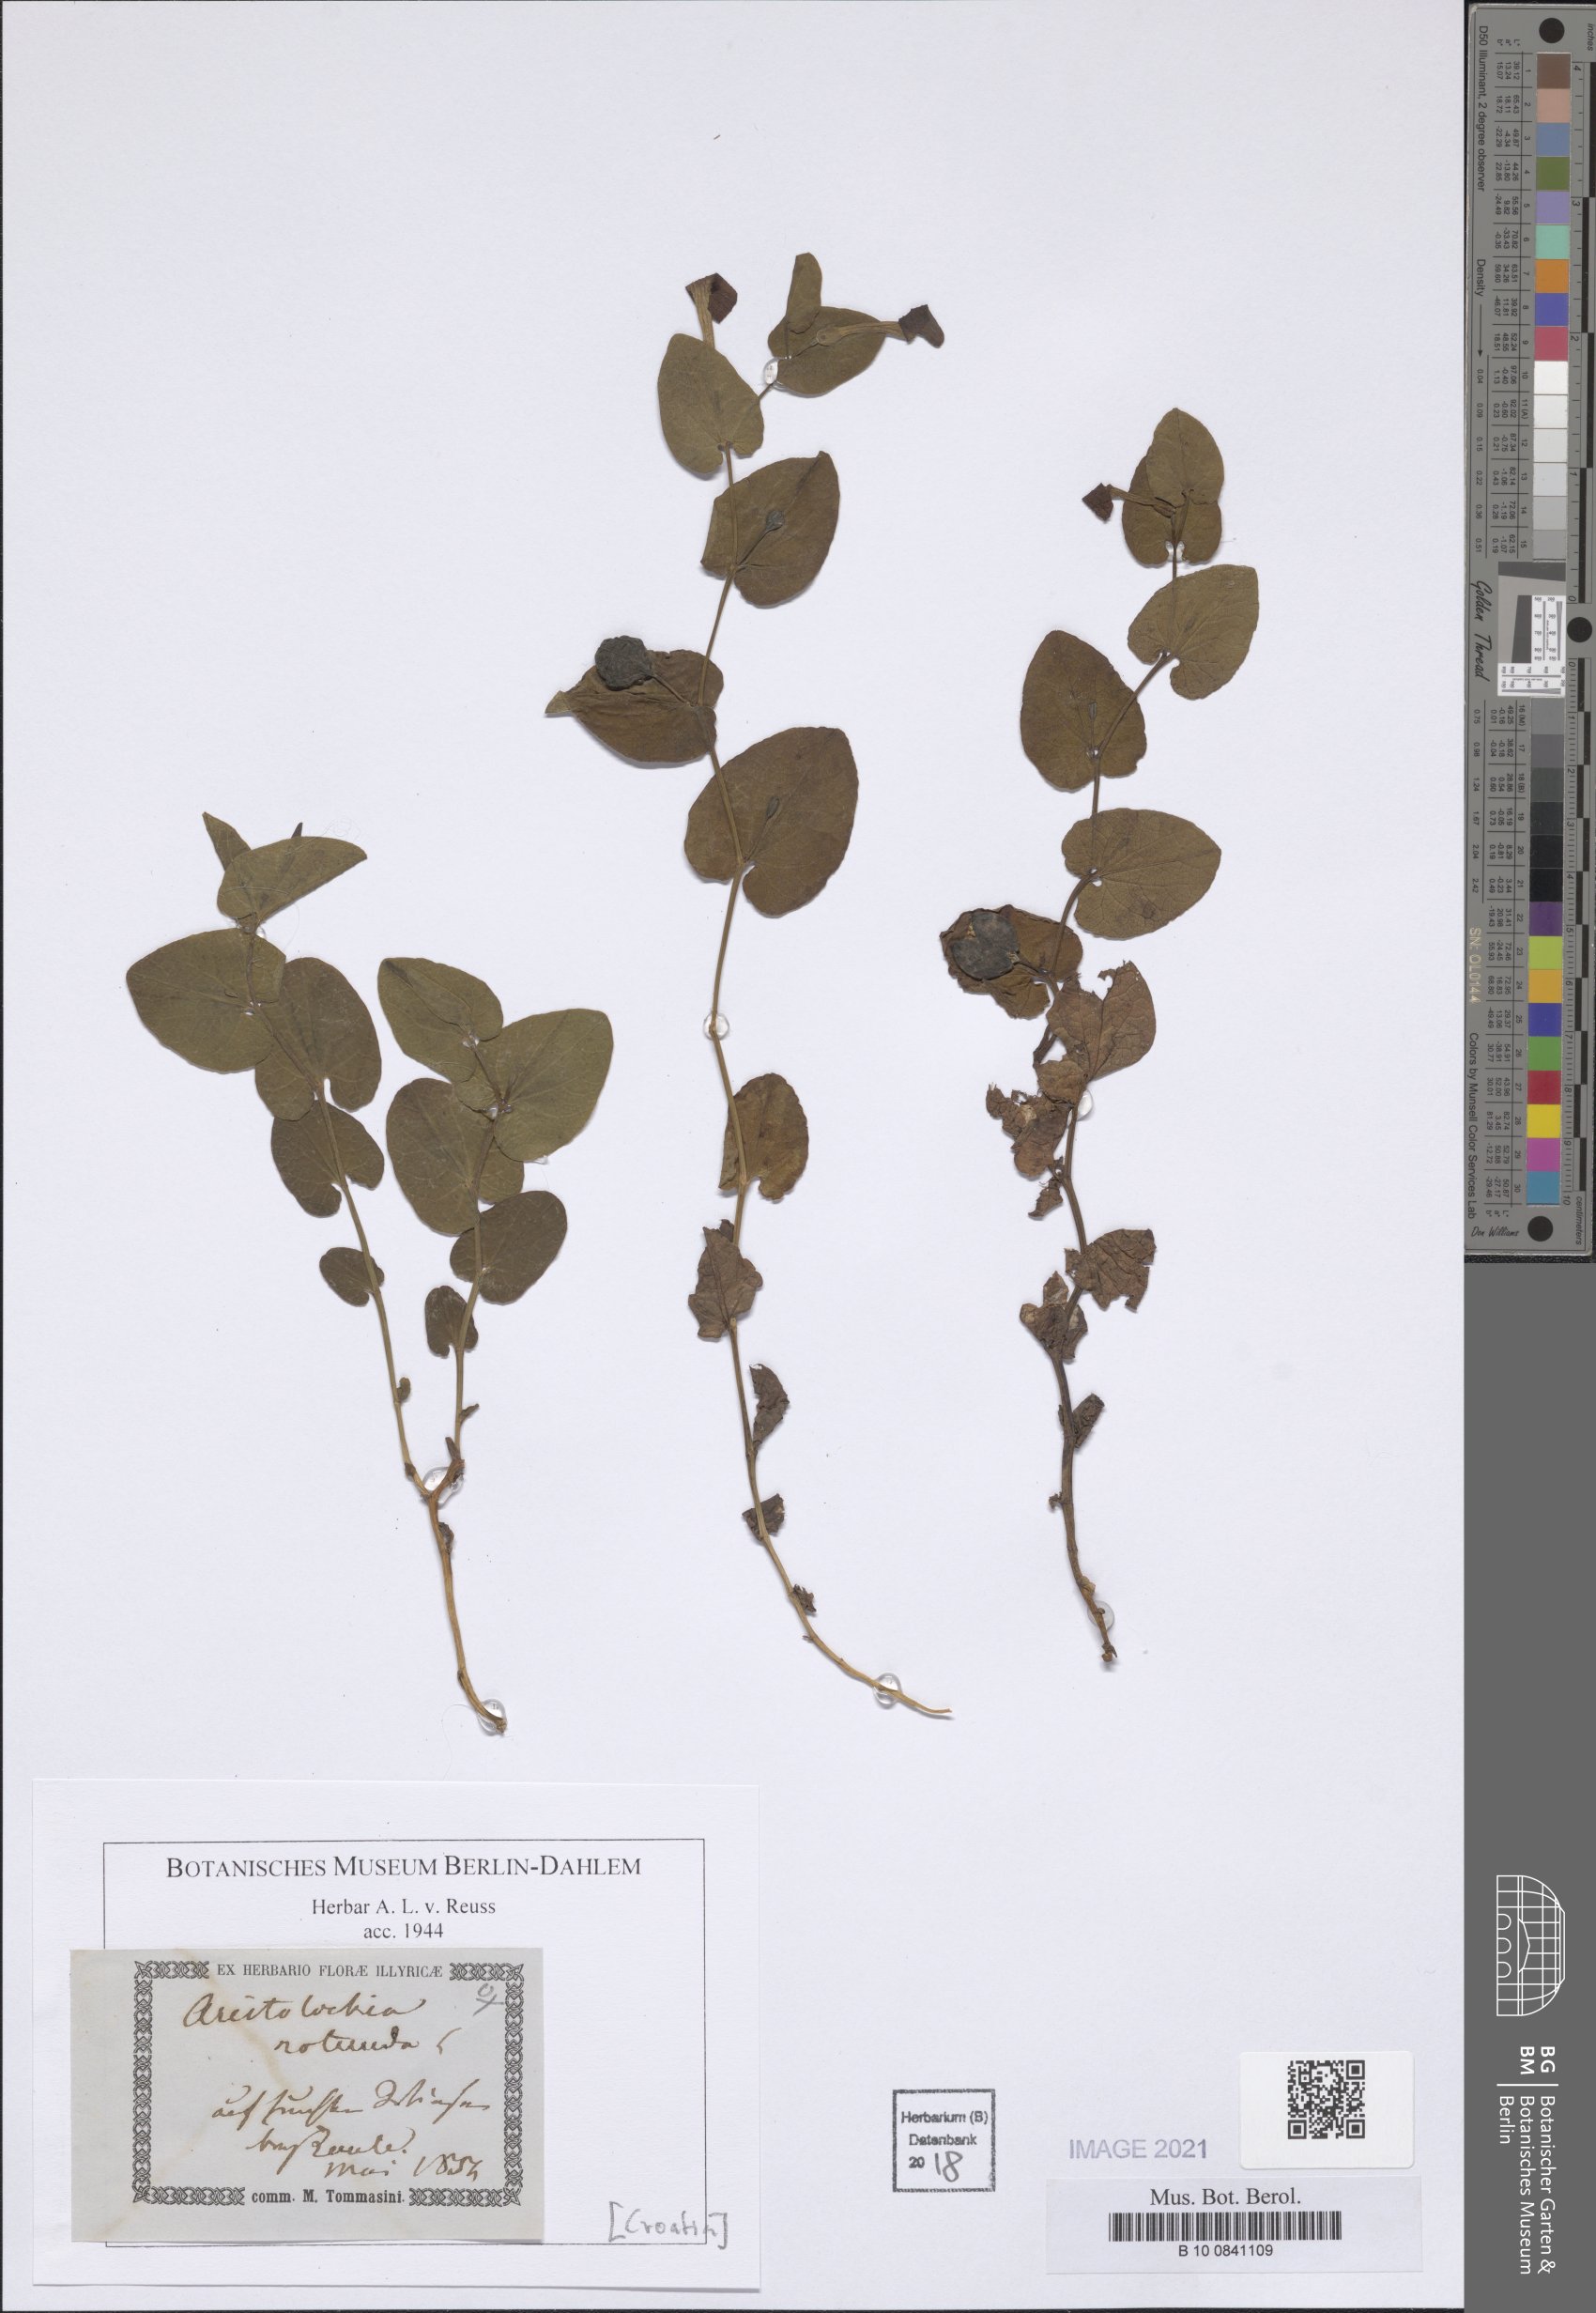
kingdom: Plantae
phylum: Tracheophyta
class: Magnoliopsida
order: Piperales
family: Aristolochiaceae
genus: Aristolochia
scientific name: Aristolochia rotunda
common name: Smearwort
